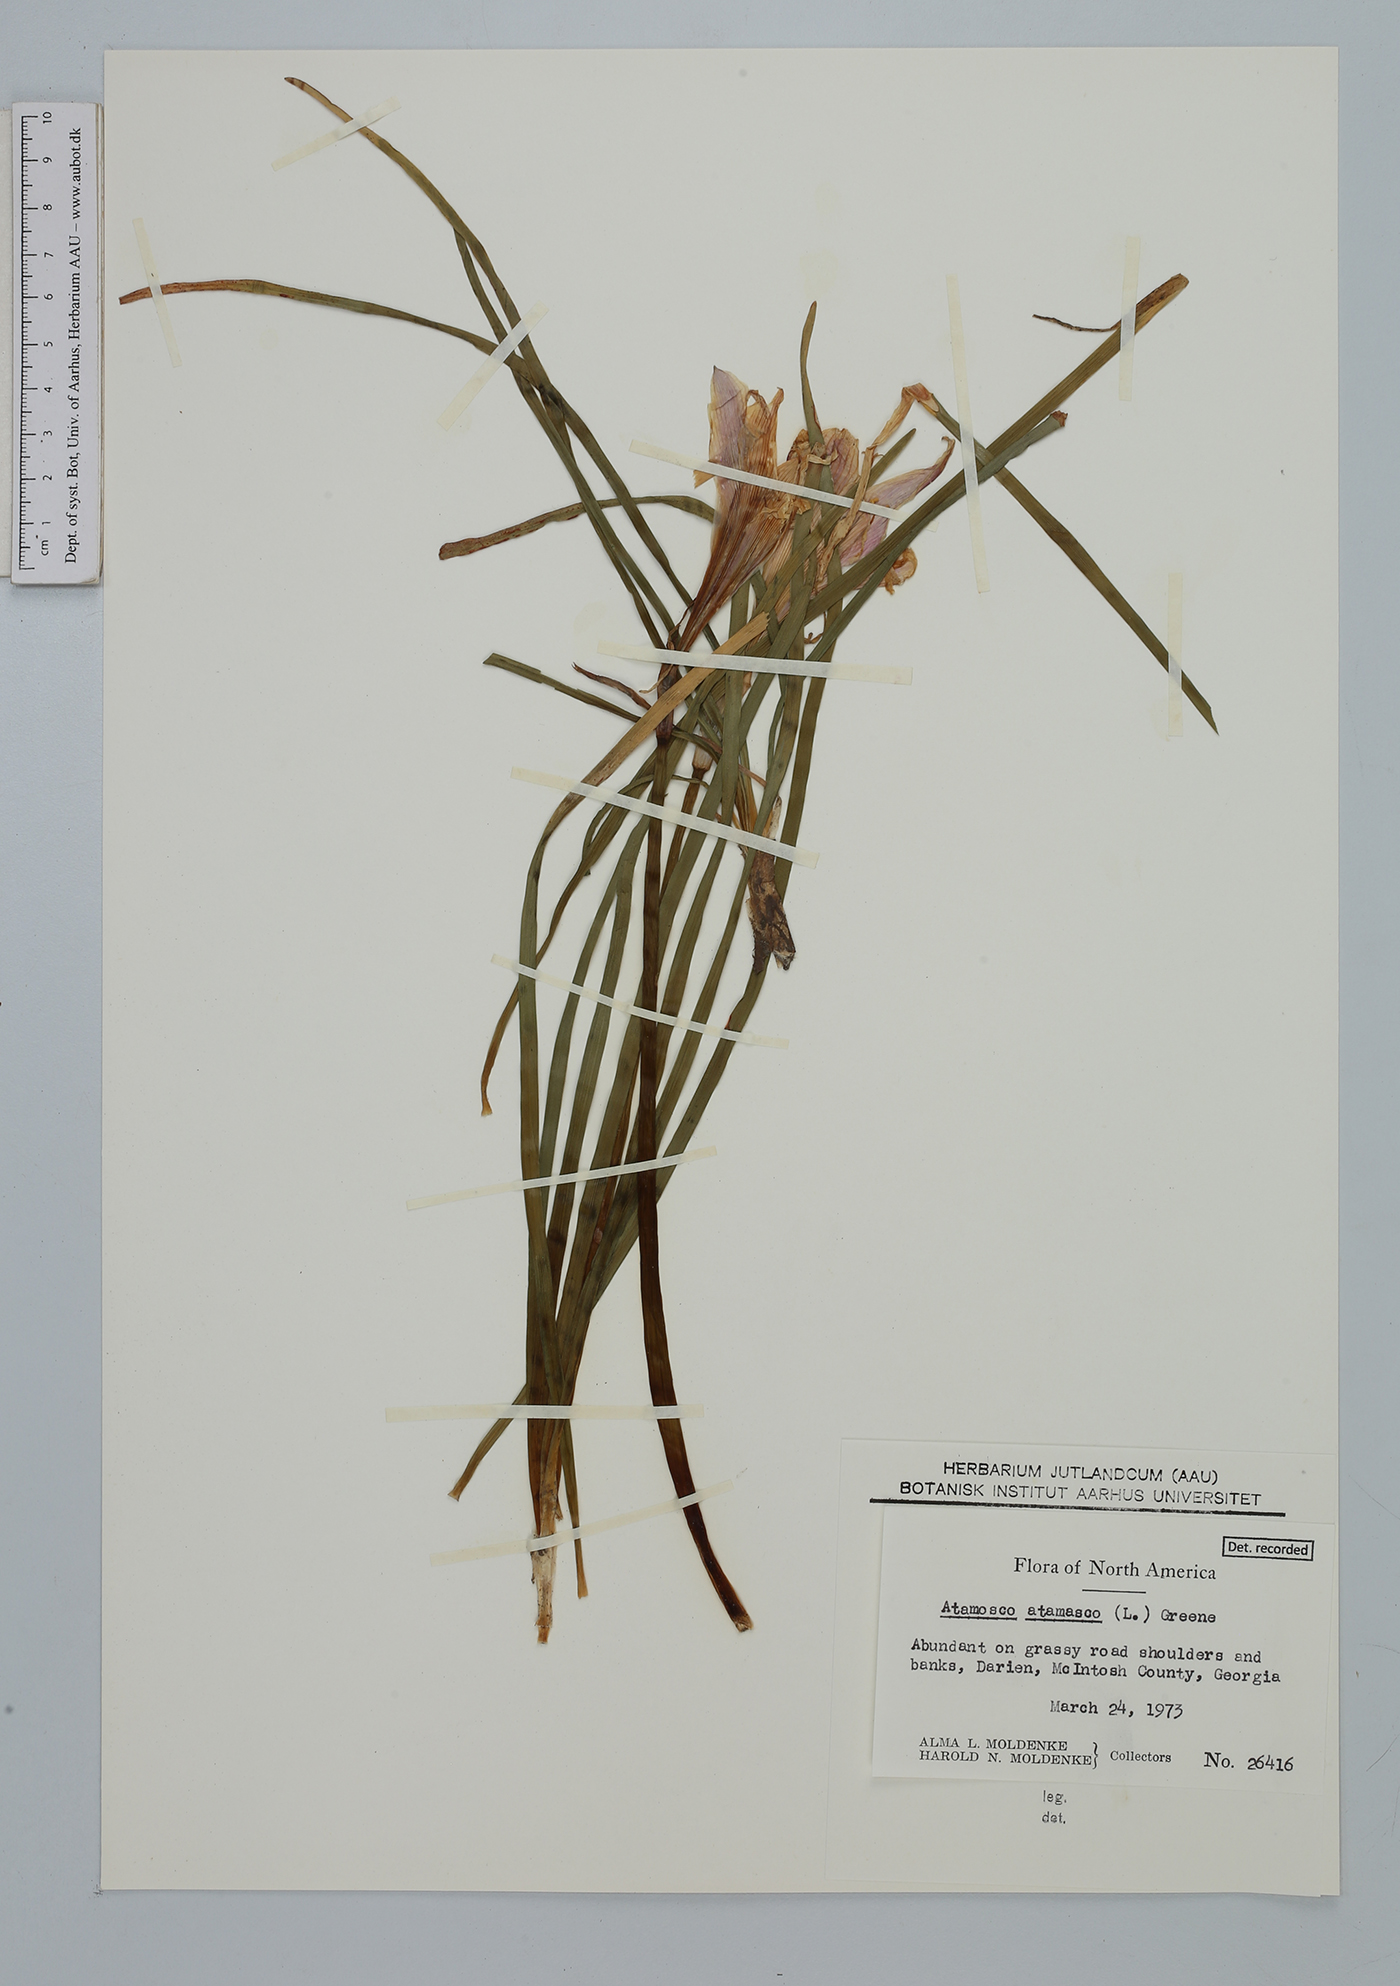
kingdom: Plantae
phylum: Tracheophyta
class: Liliopsida
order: Asparagales
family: Amaryllidaceae
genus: Zephyranthes
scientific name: Zephyranthes atamasco
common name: Atamasco lily
